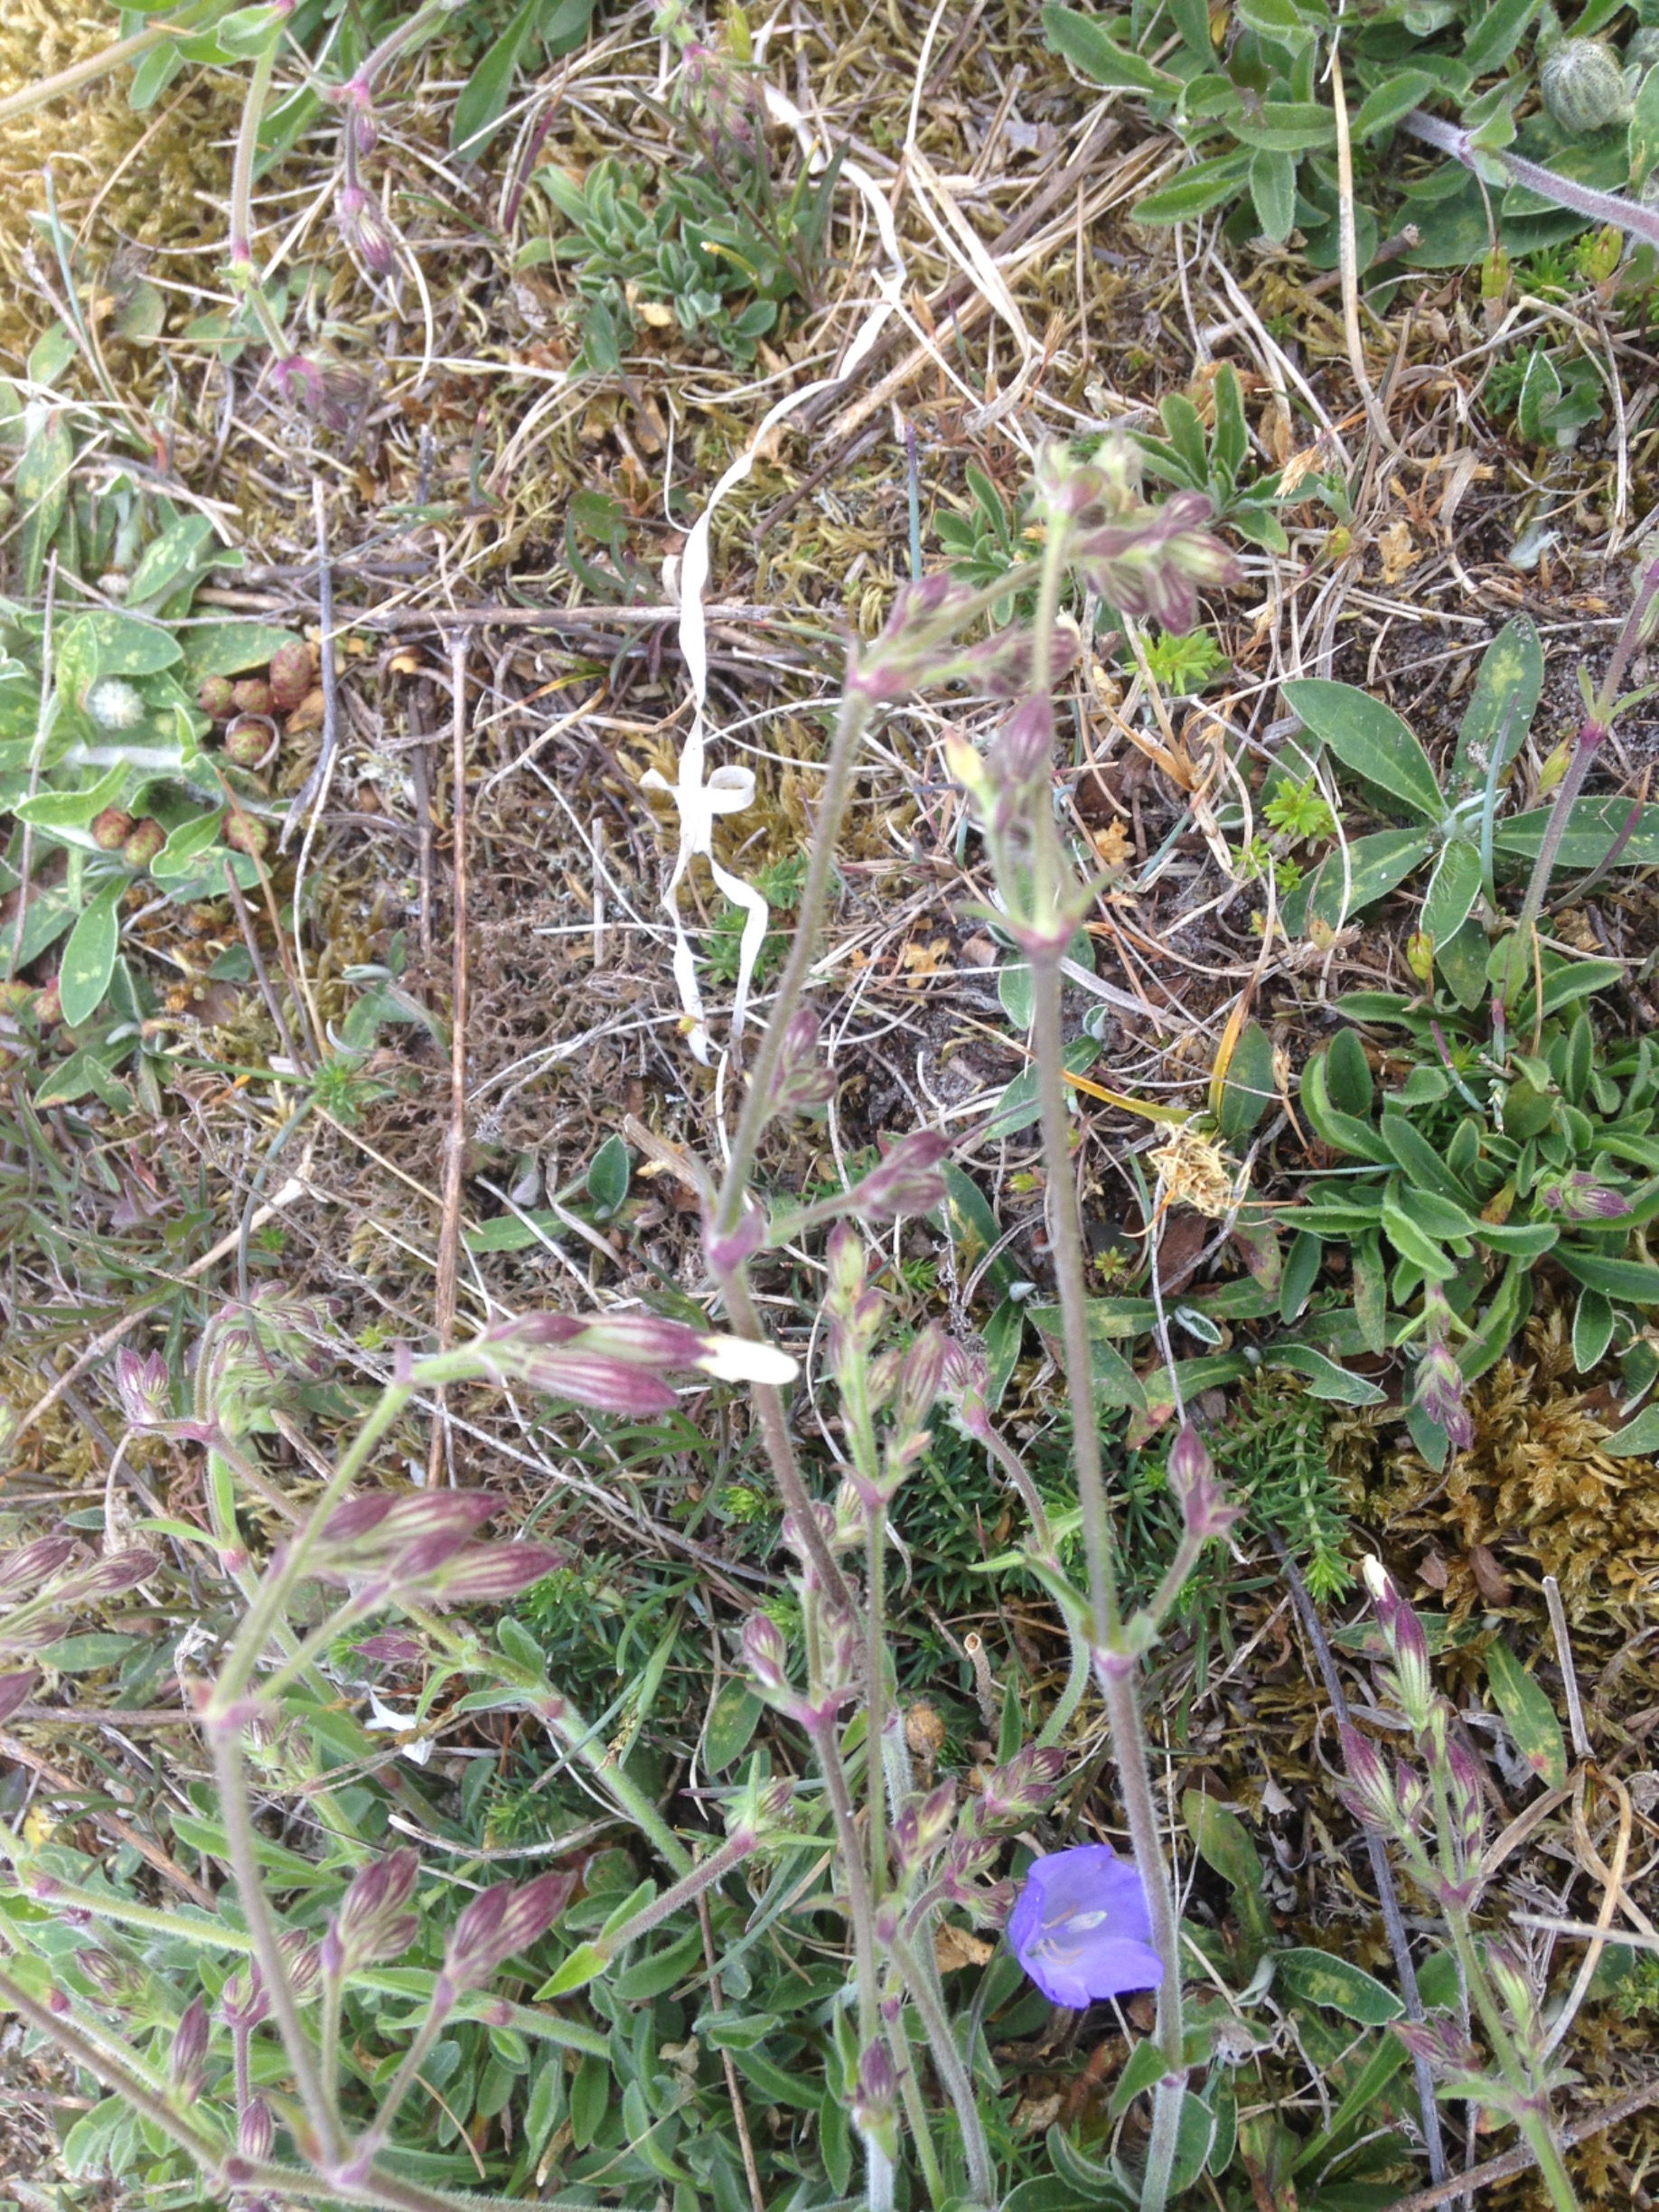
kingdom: Plantae
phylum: Tracheophyta
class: Magnoliopsida
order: Caryophyllales
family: Caryophyllaceae
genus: Silene
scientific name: Silene nutans
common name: Nikkende limurt
